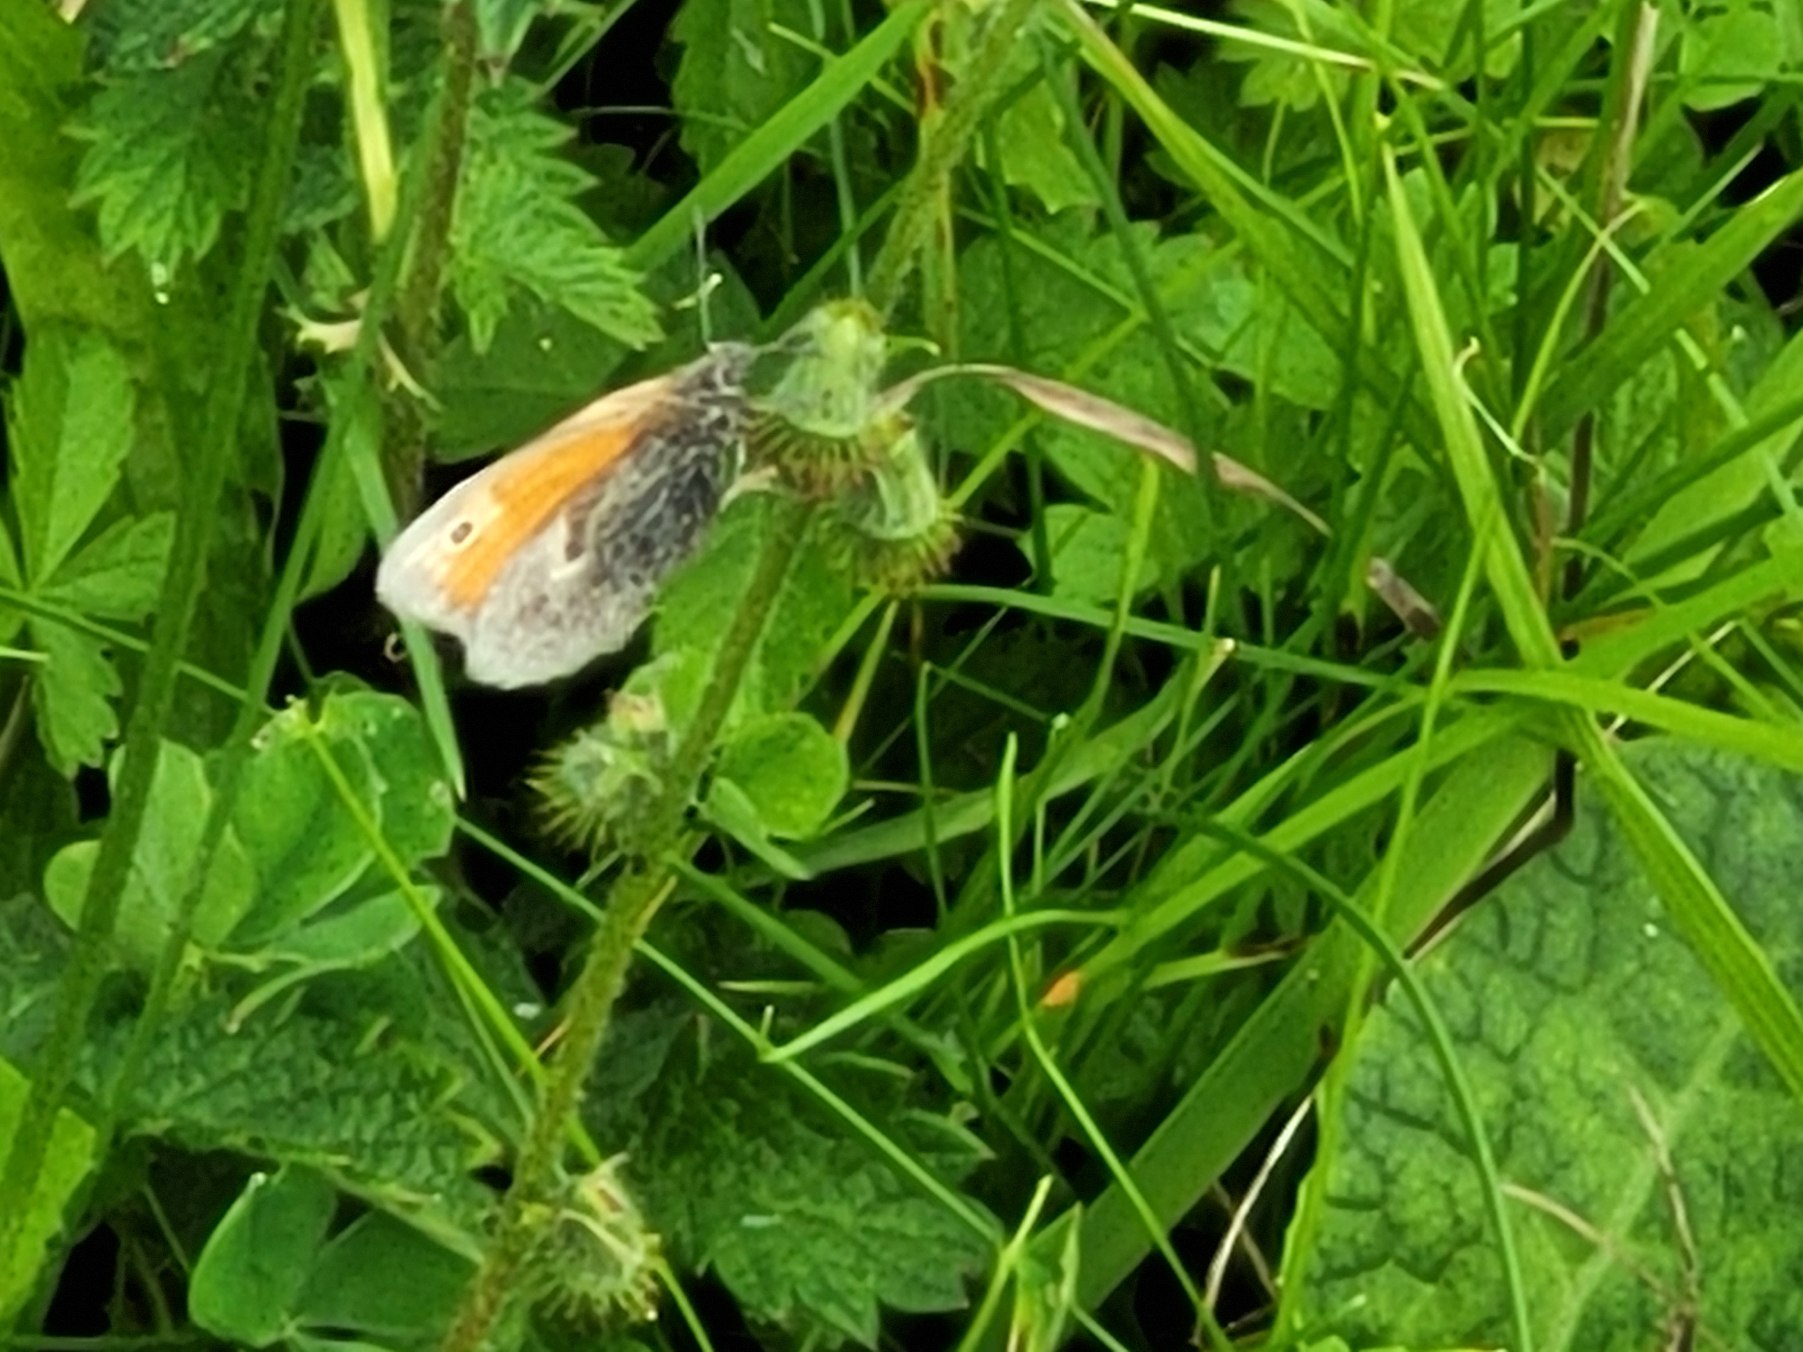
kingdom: Animalia
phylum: Arthropoda
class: Insecta
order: Lepidoptera
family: Nymphalidae
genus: Coenonympha
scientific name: Coenonympha pamphilus
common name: Okkergul randøje
